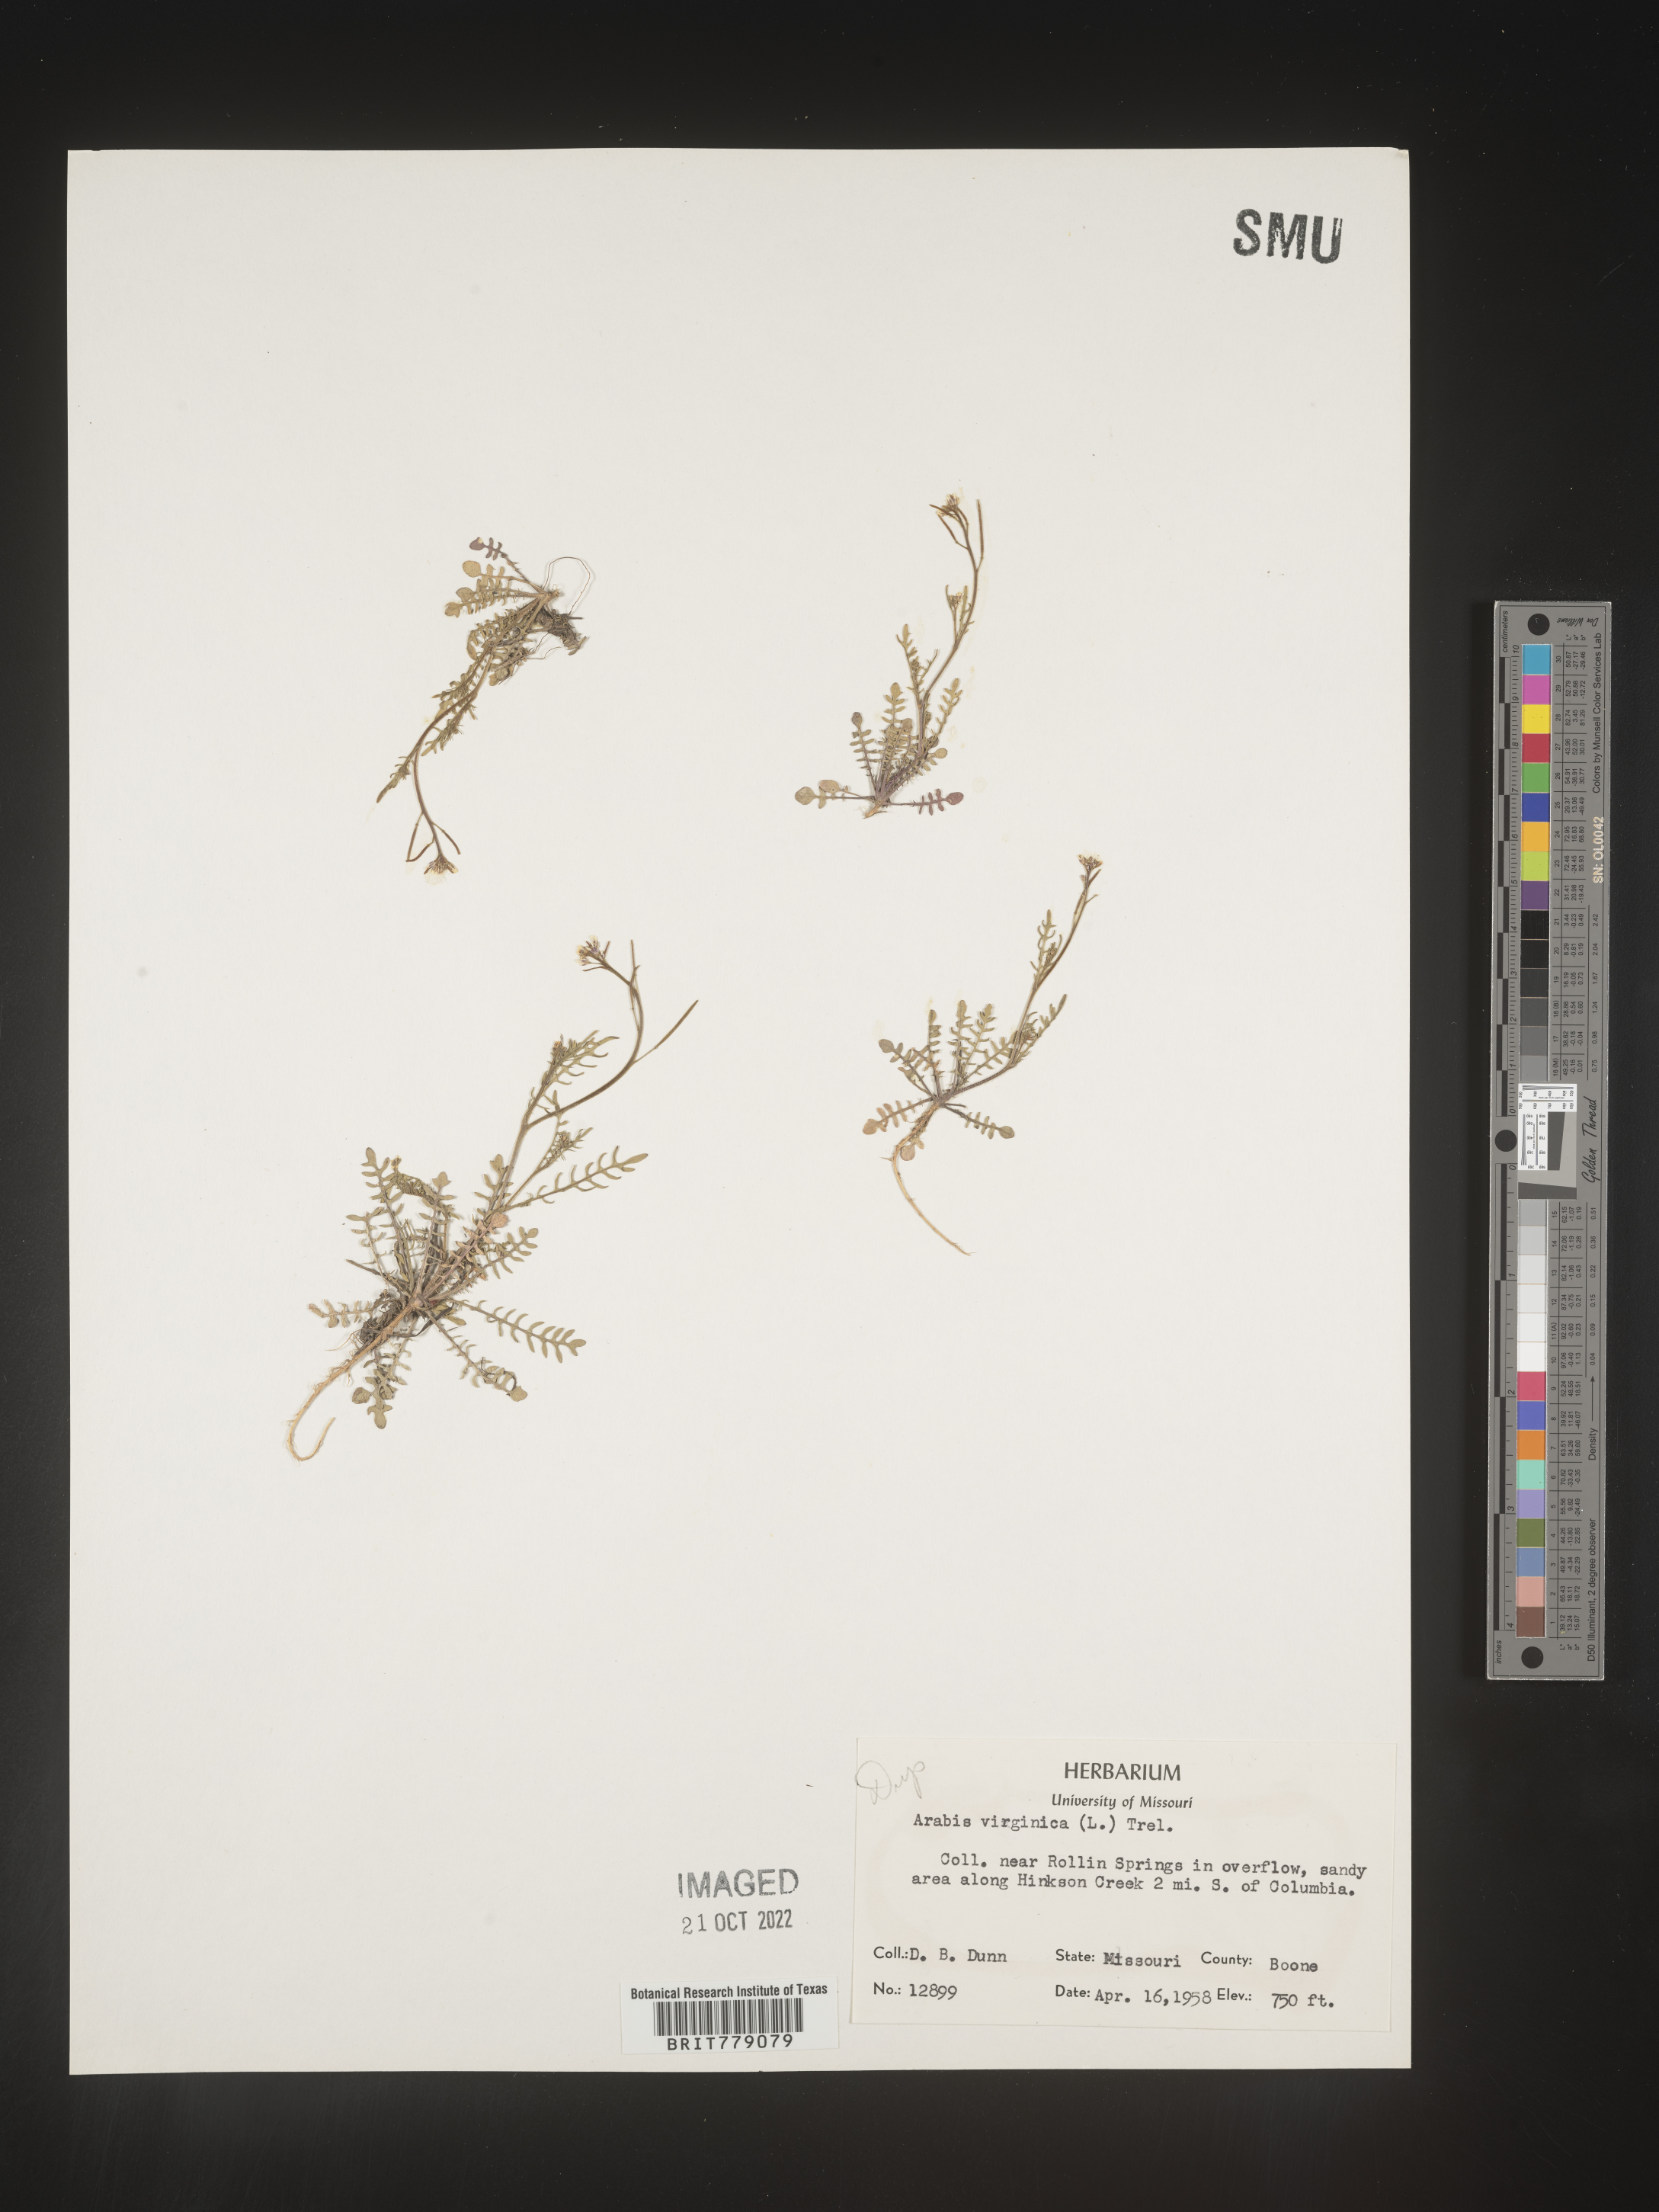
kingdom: Plantae
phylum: Tracheophyta
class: Magnoliopsida
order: Brassicales
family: Brassicaceae
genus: Sibara
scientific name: Sibara
